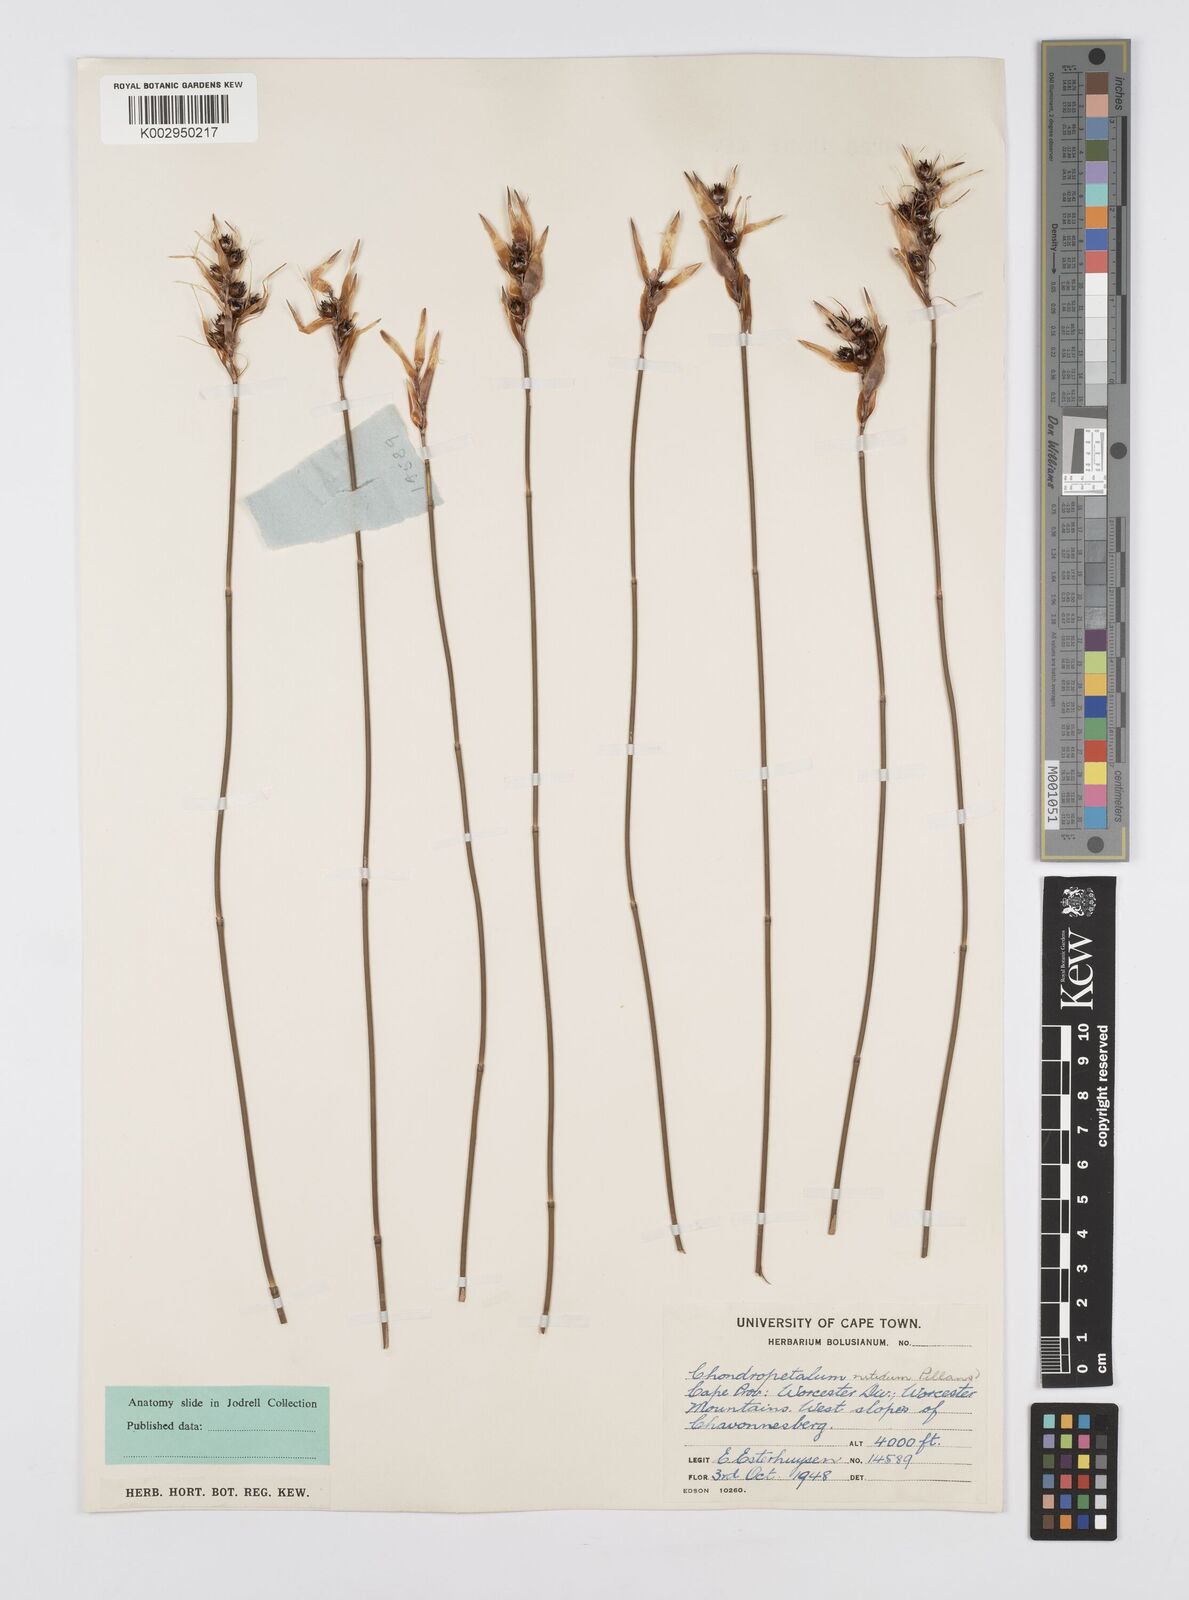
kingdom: Plantae
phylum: Tracheophyta
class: Liliopsida
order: Poales
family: Restionaceae
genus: Askidiosperma
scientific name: Askidiosperma paniculatum
